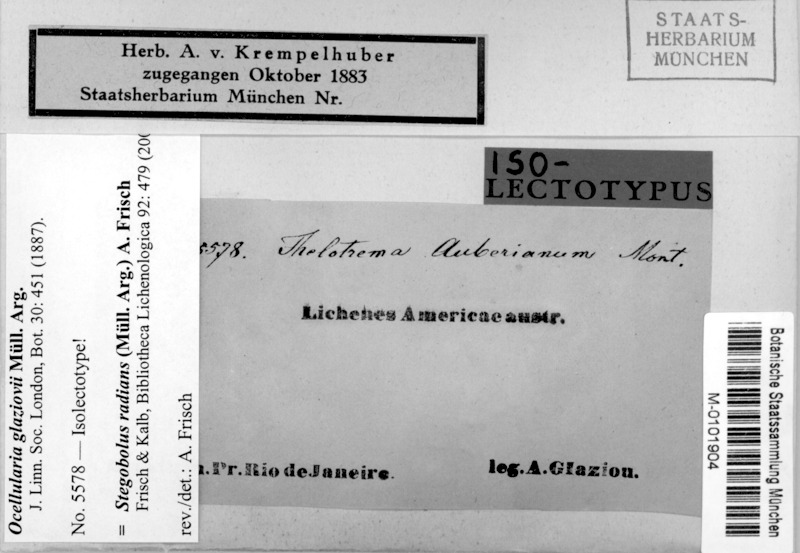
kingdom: Fungi
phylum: Ascomycota
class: Lecanoromycetes
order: Ostropales
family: Graphidaceae
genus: Stegobolus
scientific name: Stegobolus radians
